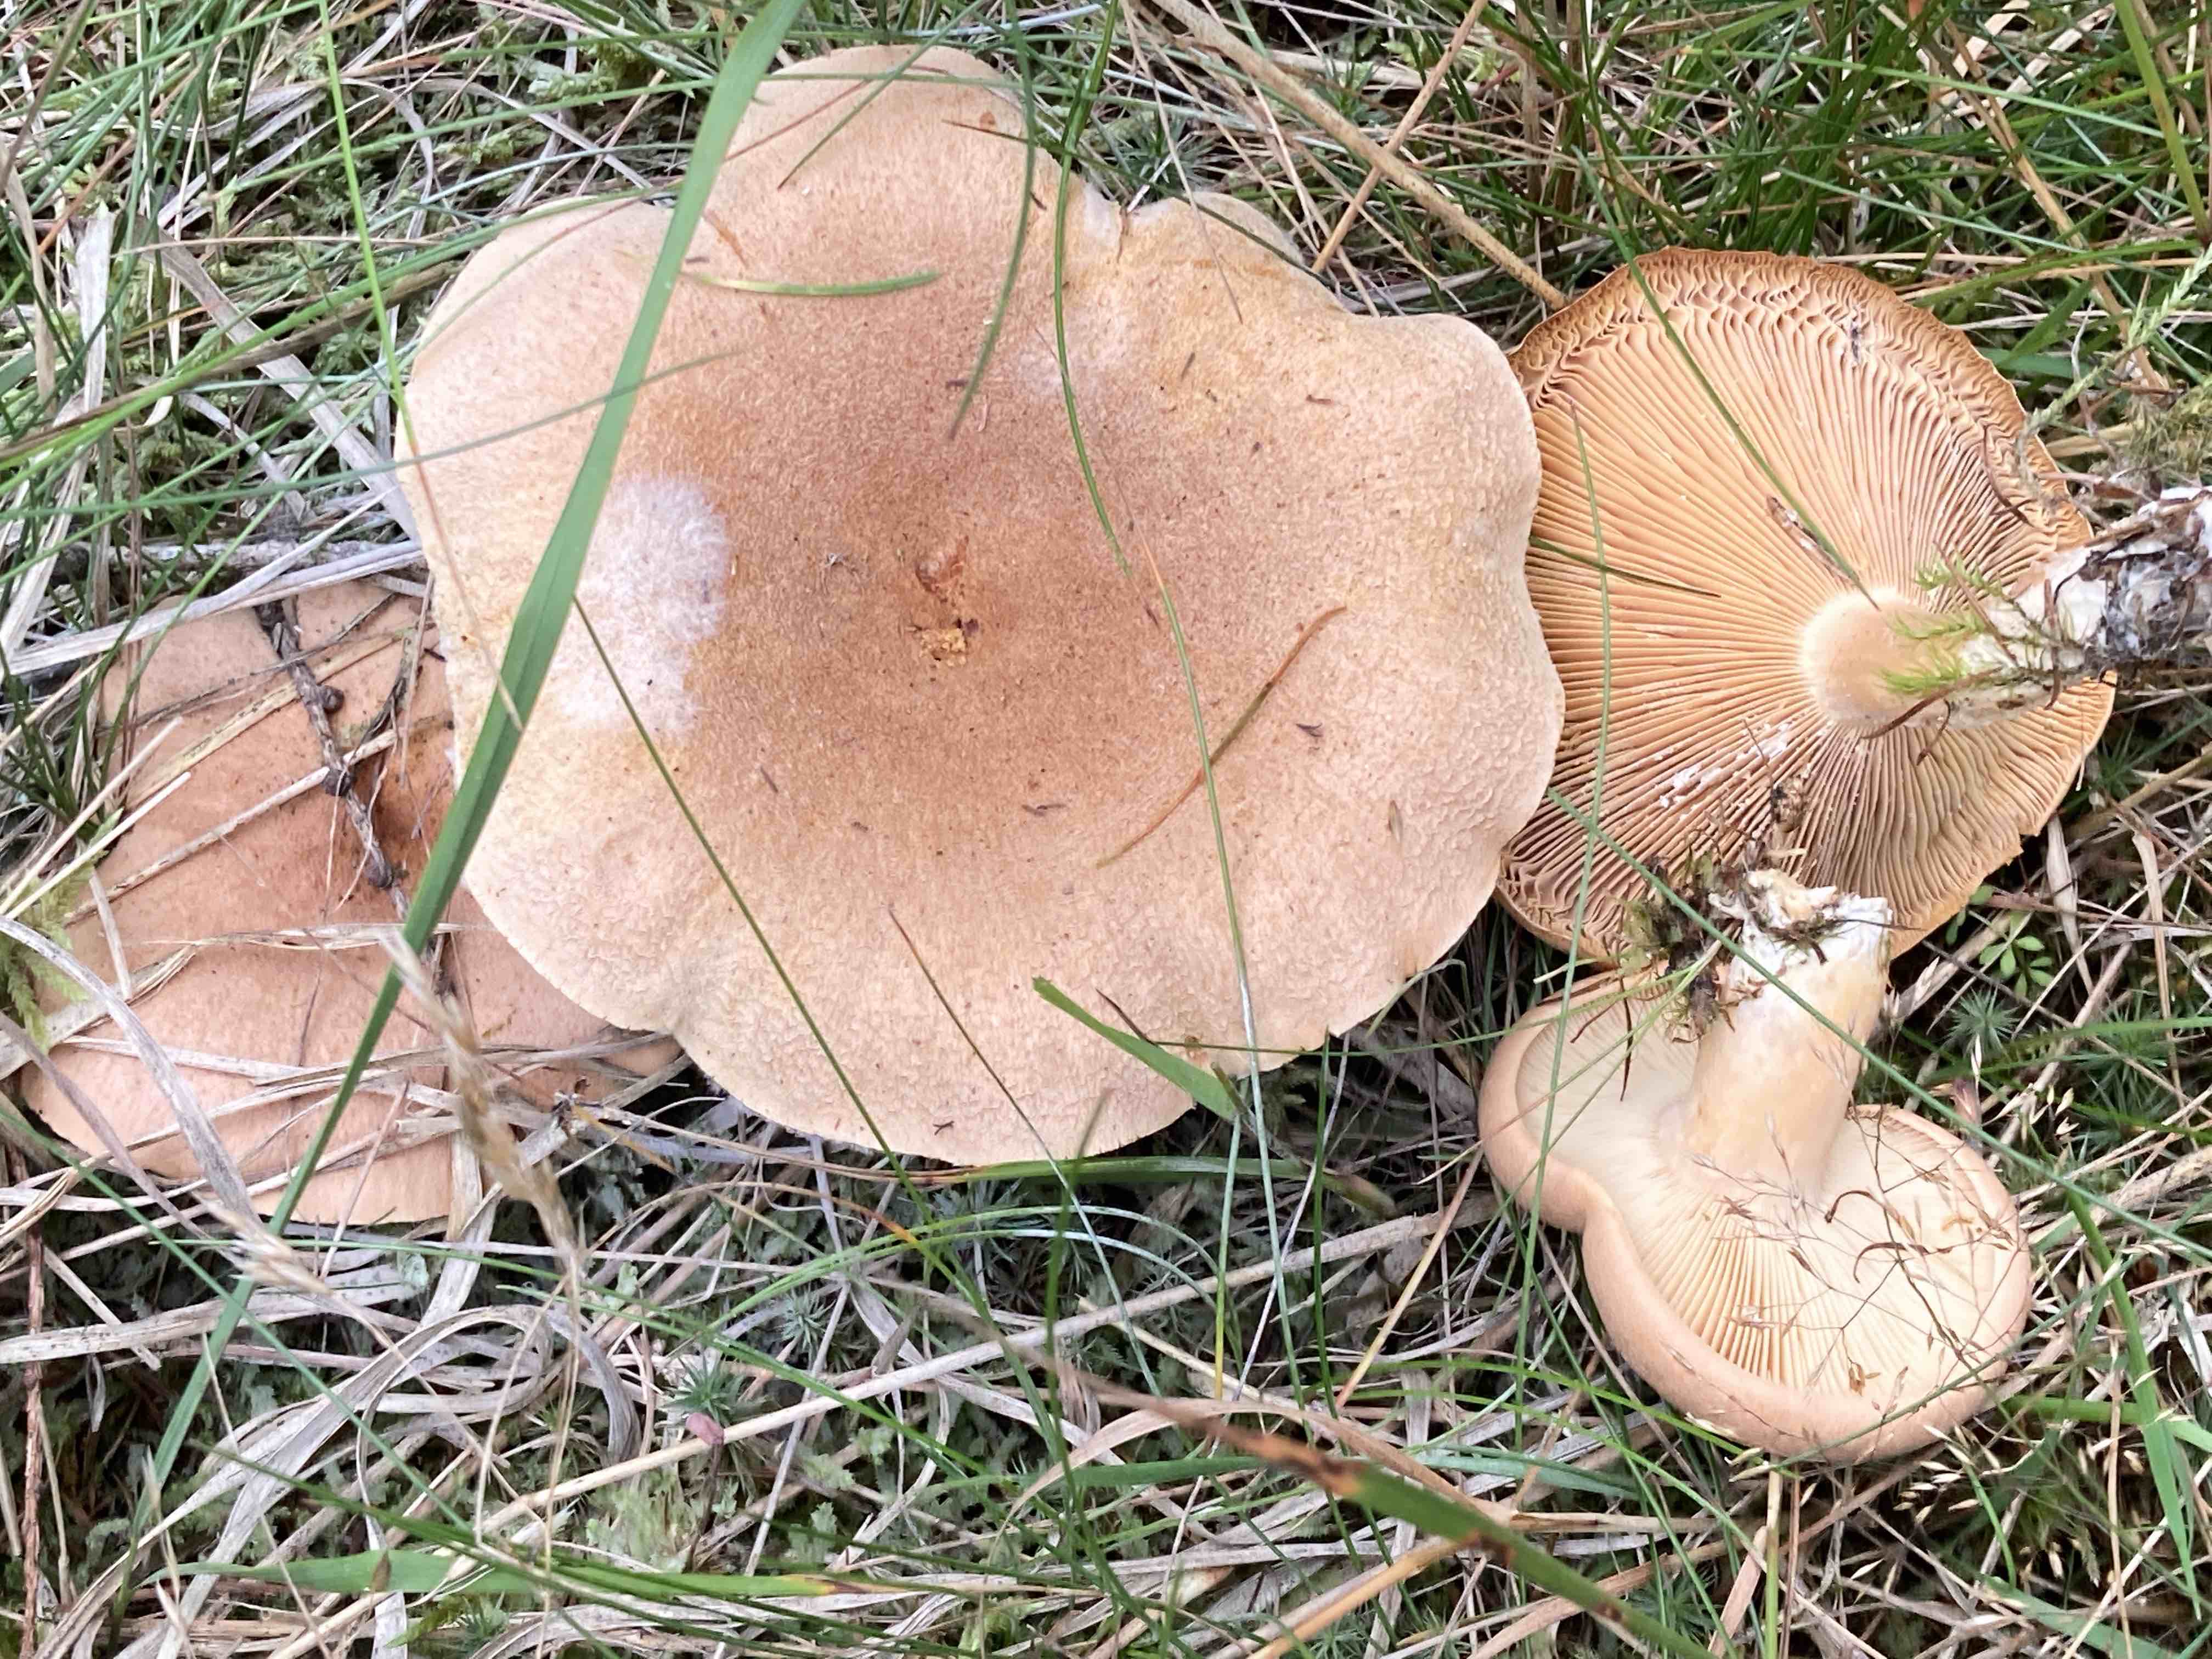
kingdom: Fungi
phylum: Basidiomycota
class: Agaricomycetes
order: Russulales
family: Russulaceae
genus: Lactarius
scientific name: Lactarius helvus
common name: mose-mælkehat
